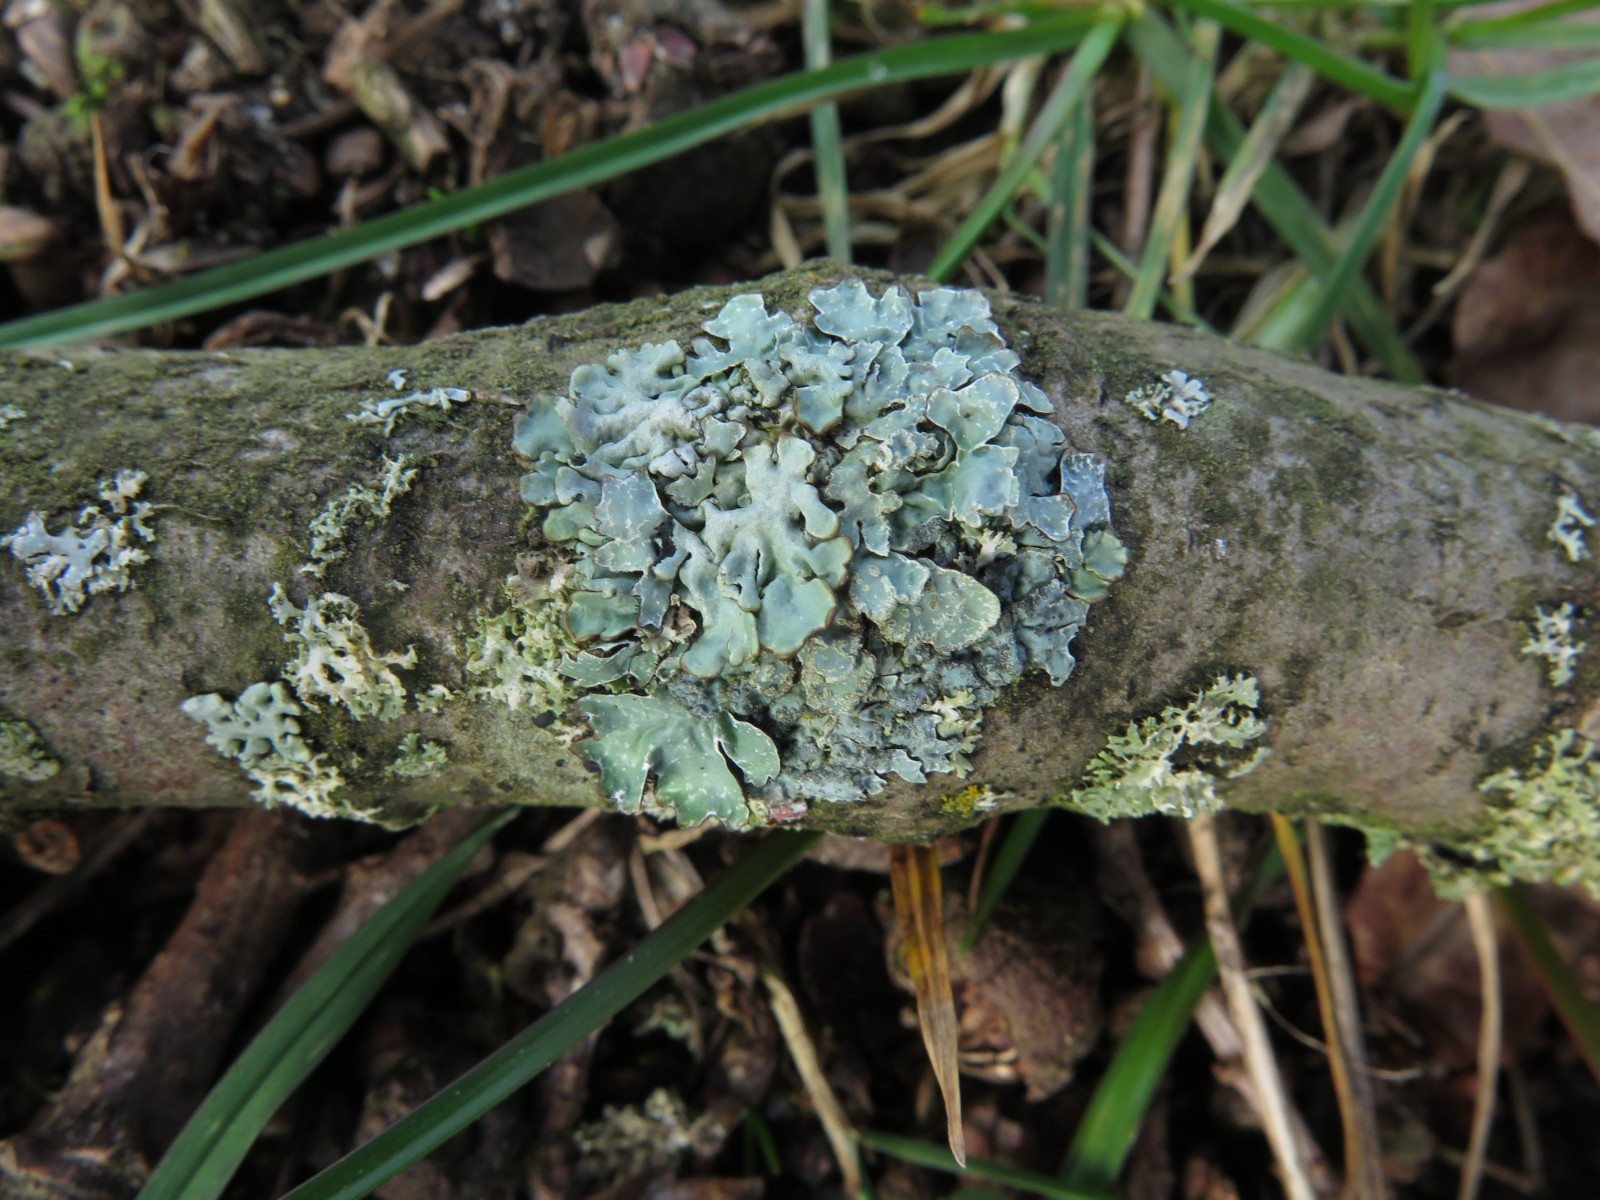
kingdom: Fungi
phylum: Ascomycota
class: Lecanoromycetes
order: Lecanorales
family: Parmeliaceae
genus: Parmelia
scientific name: Parmelia sulcata
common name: rynket skållav
